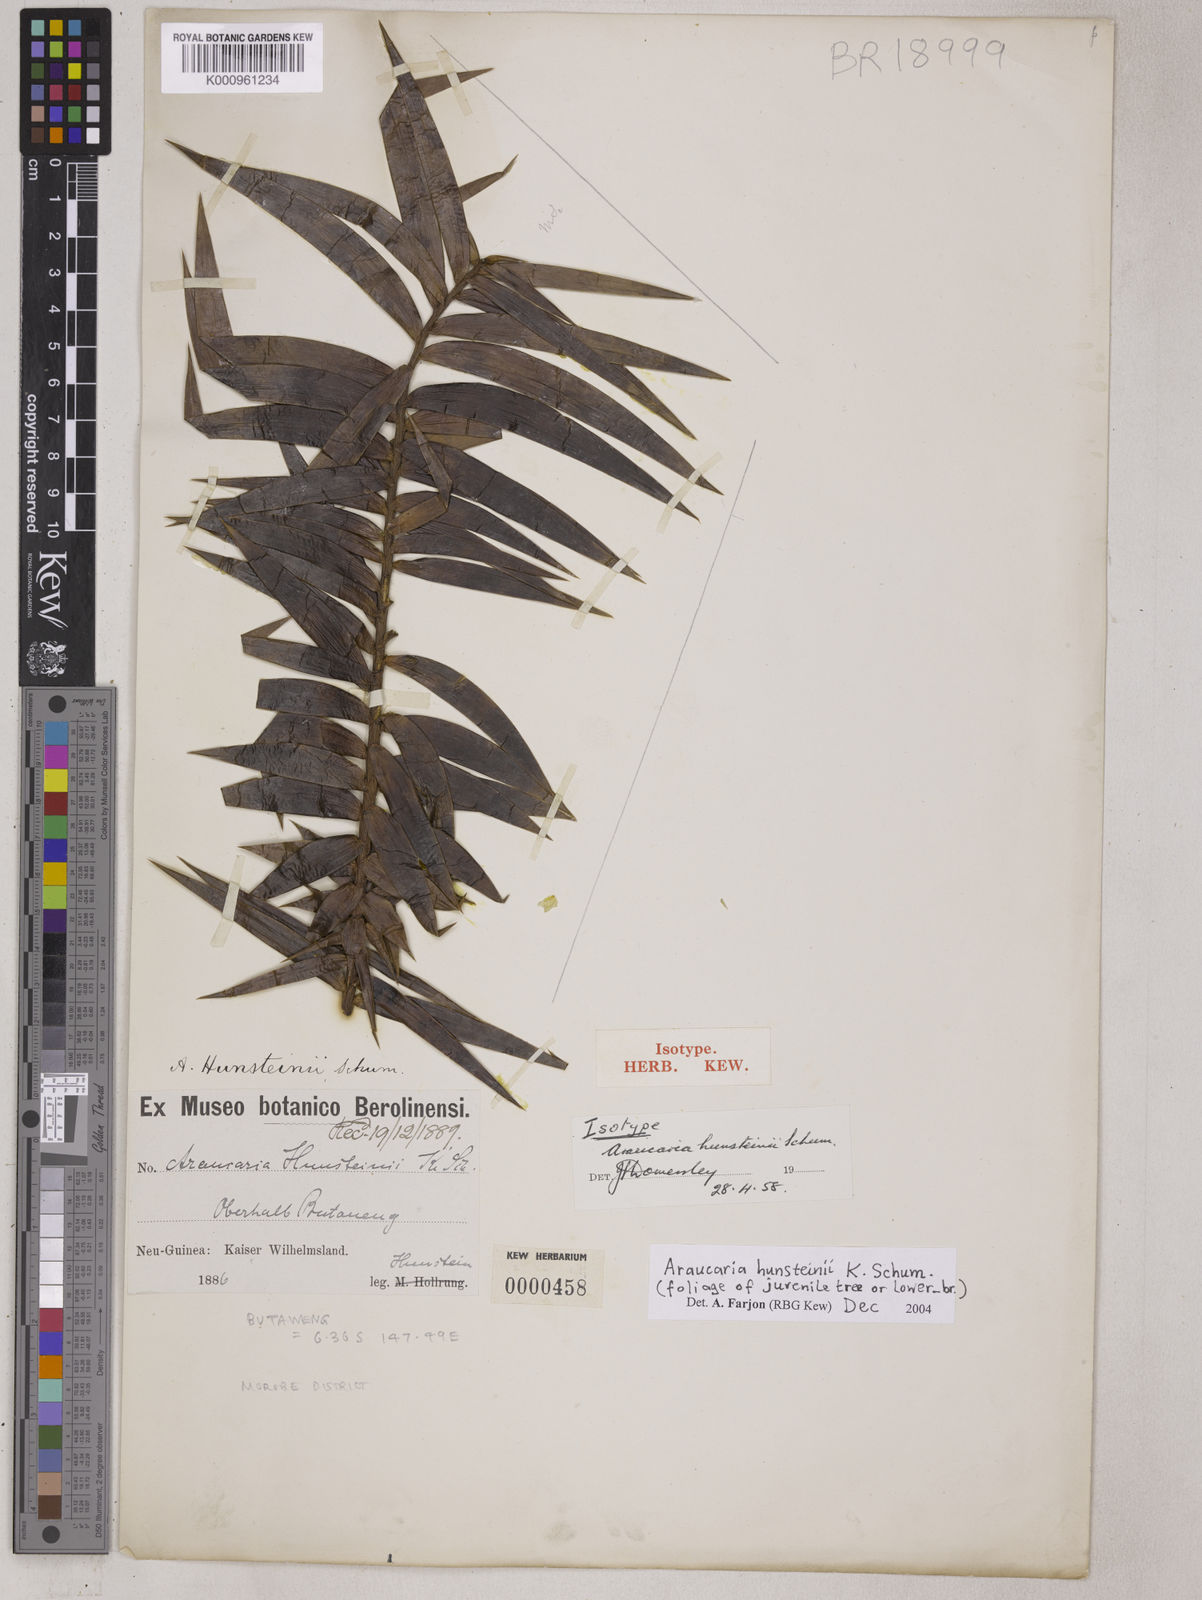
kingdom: Plantae
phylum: Tracheophyta
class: Pinopsida
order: Pinales
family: Araucariaceae
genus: Araucaria
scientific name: Araucaria hunsteinii
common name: Klinki pine
